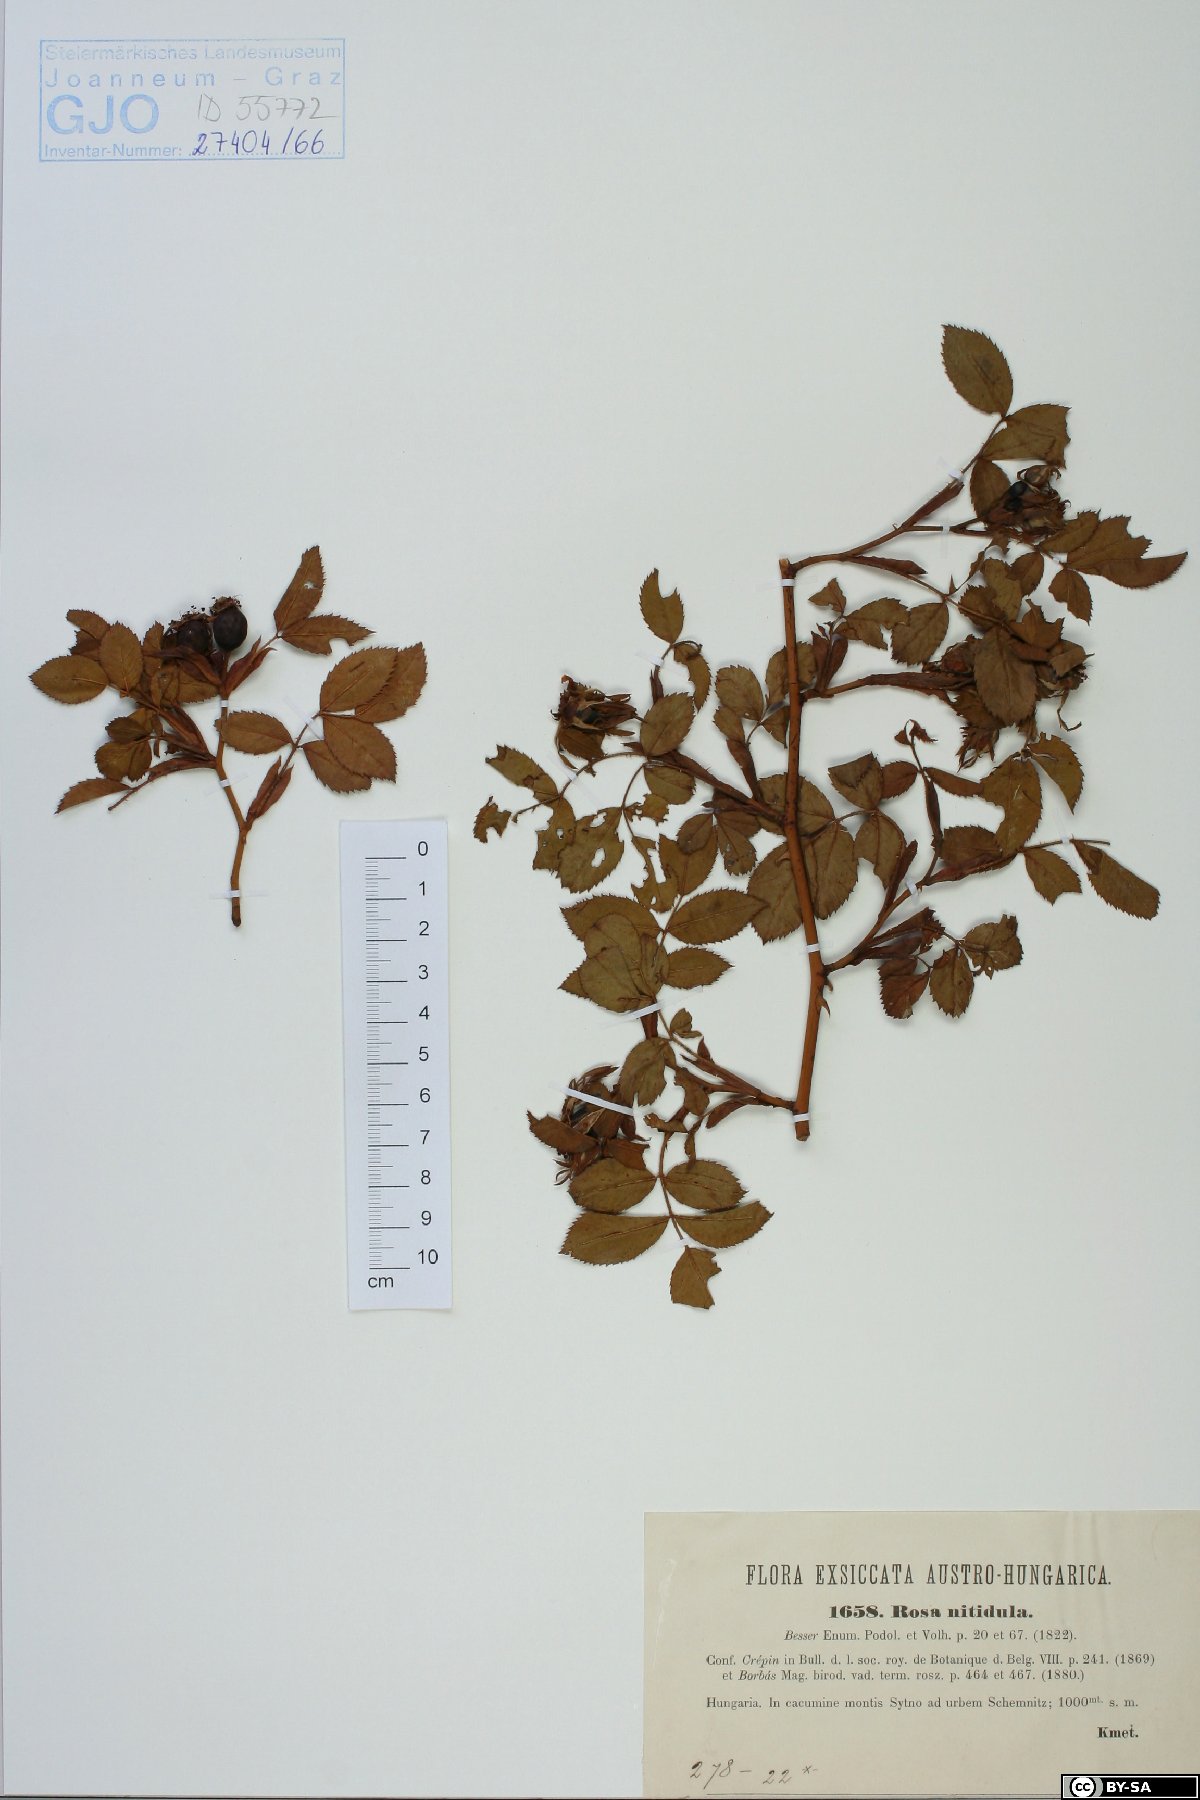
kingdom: Plantae
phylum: Tracheophyta
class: Magnoliopsida
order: Rosales
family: Rosaceae
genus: Rosa
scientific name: Rosa canina
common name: Dog rose
